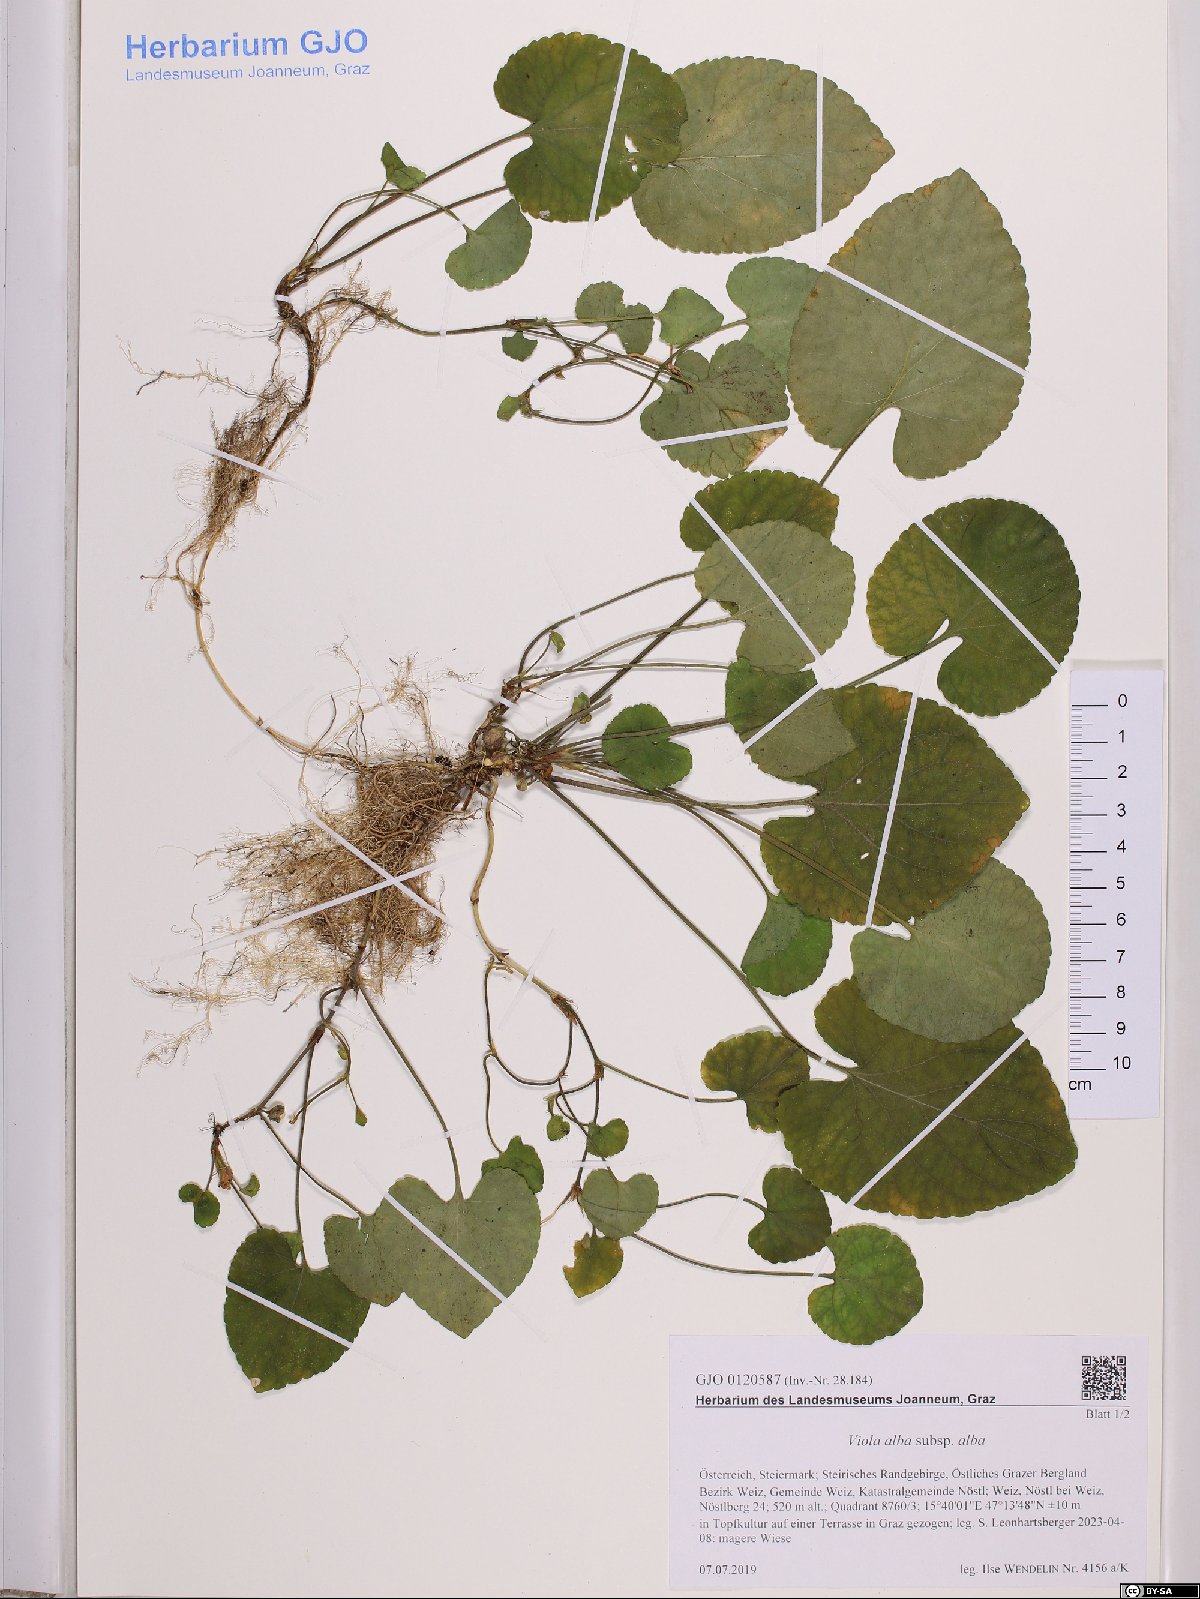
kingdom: Plantae
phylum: Tracheophyta
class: Magnoliopsida
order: Malpighiales
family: Violaceae
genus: Viola
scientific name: Viola alba
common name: White violet
